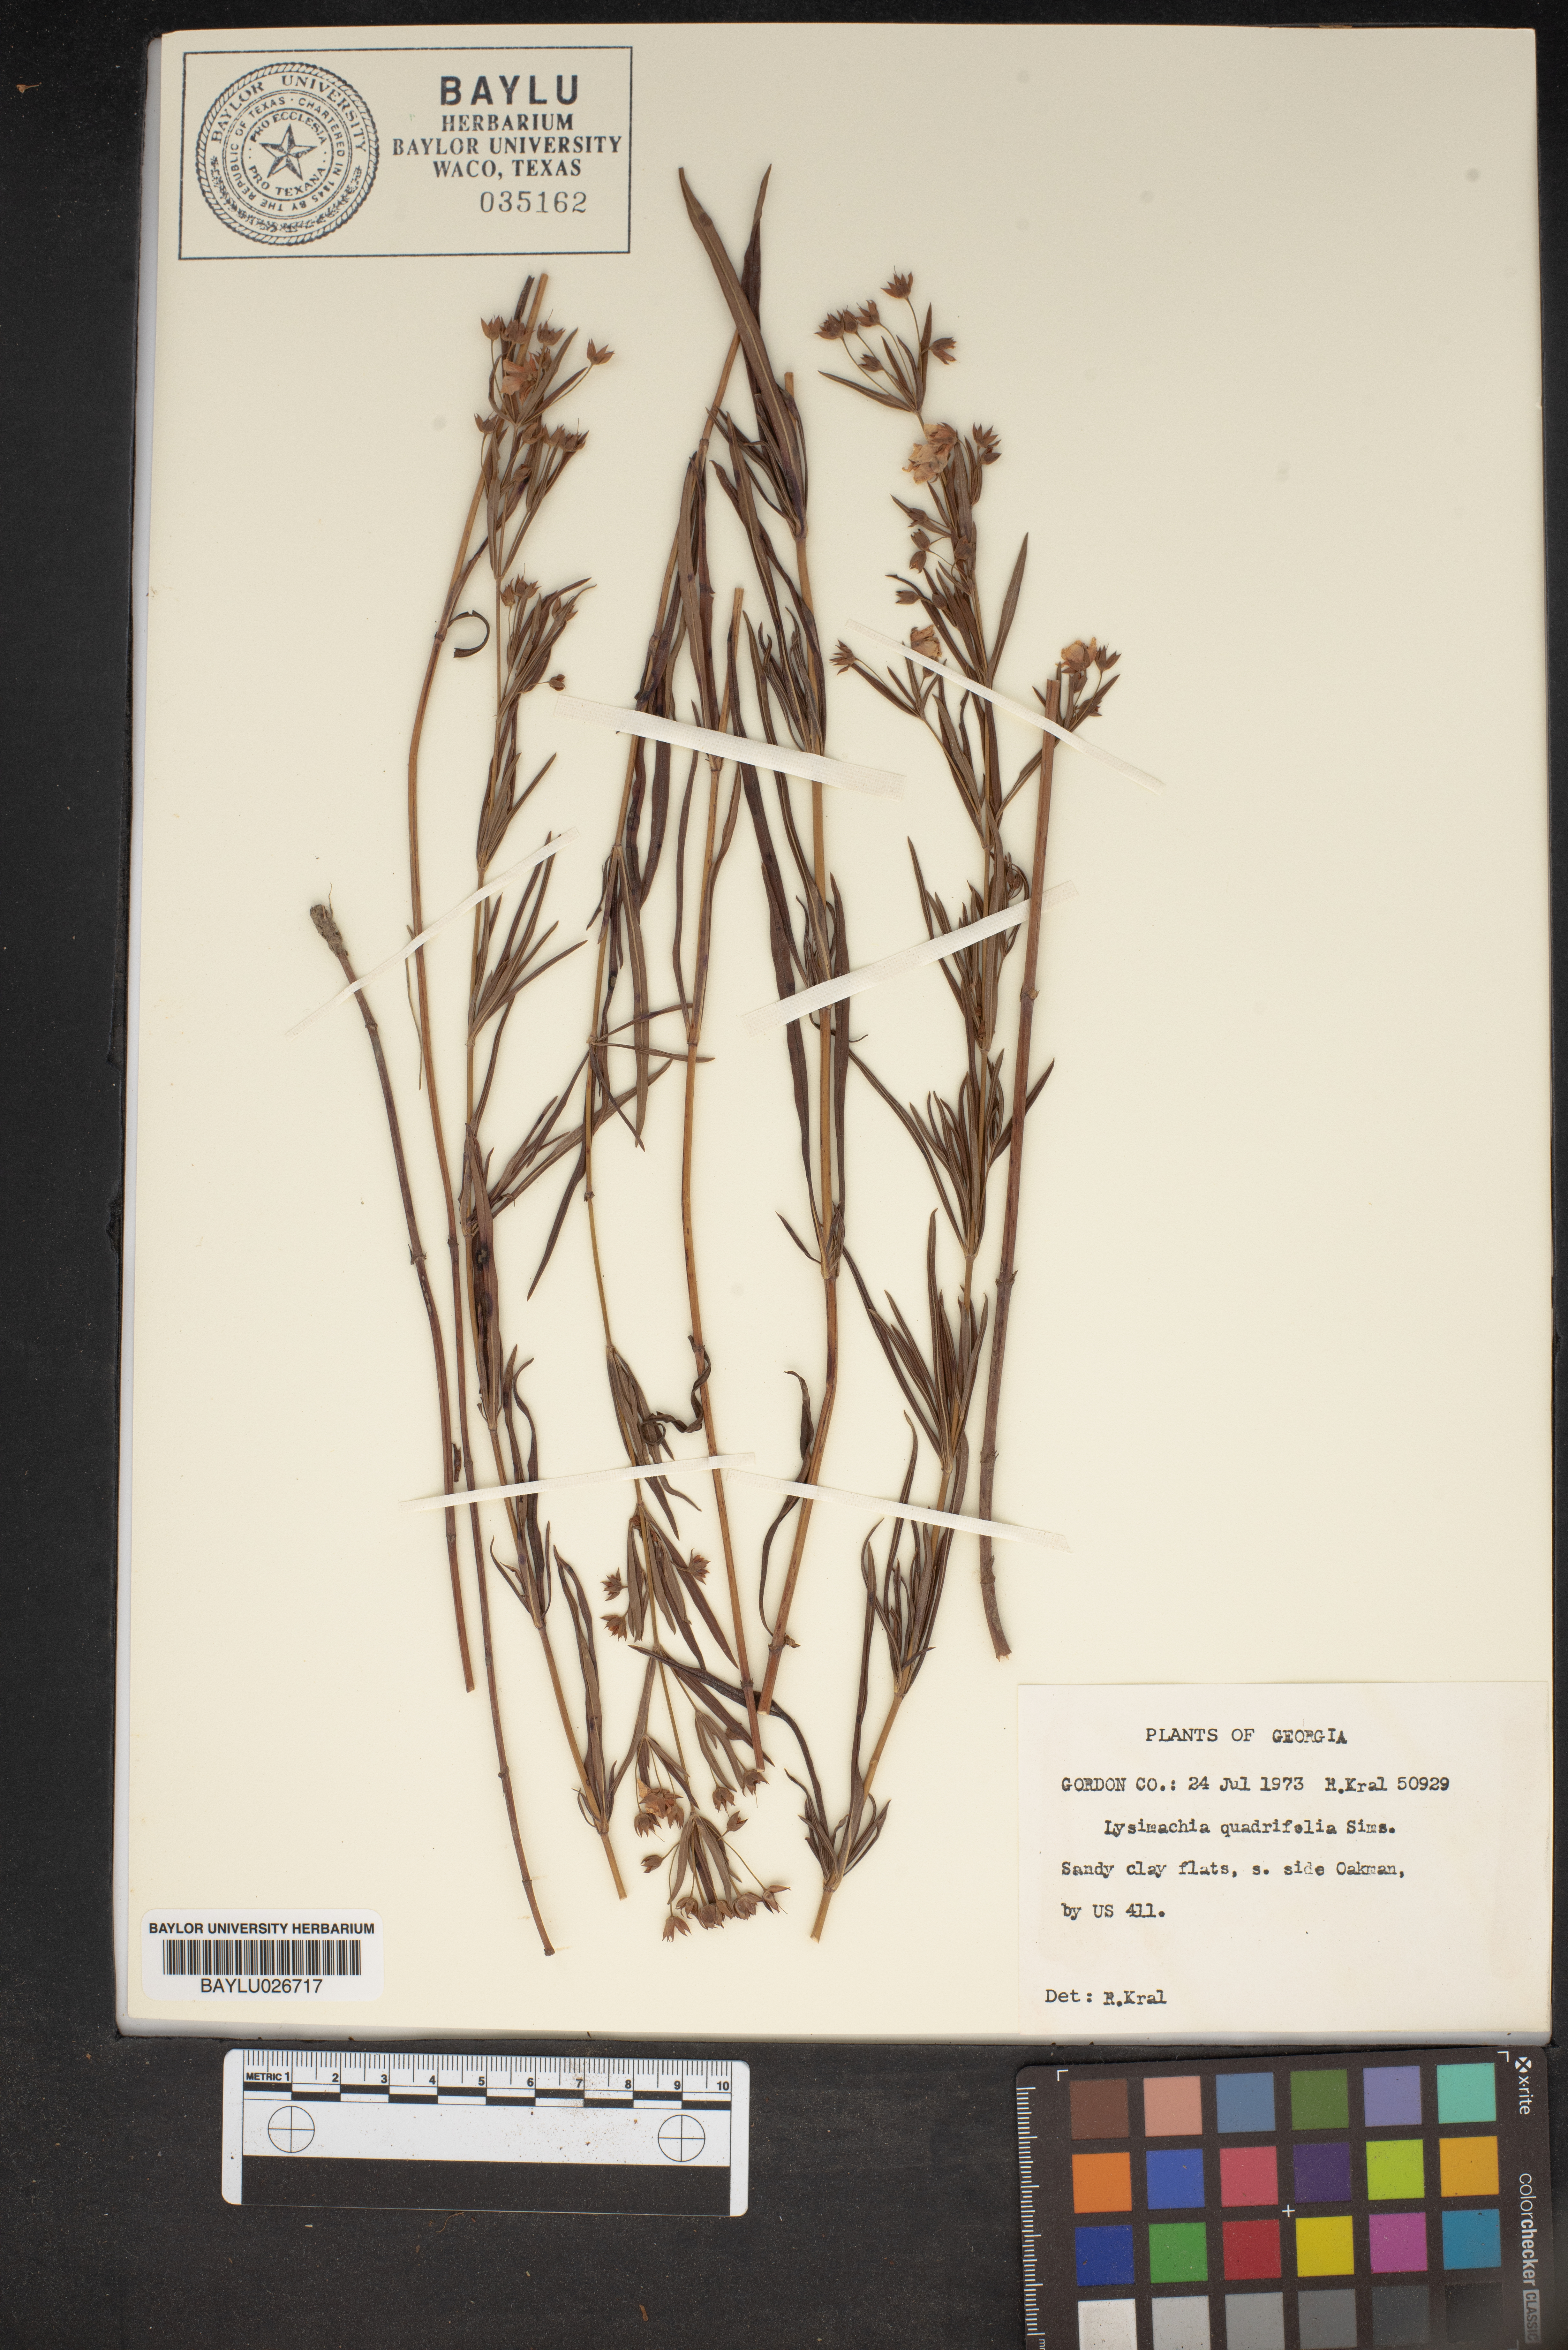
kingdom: Plantae
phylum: Tracheophyta
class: Magnoliopsida
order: Ericales
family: Primulaceae
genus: Lysimachia
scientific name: Lysimachia quadrifolia
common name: Whorled loosestrife
